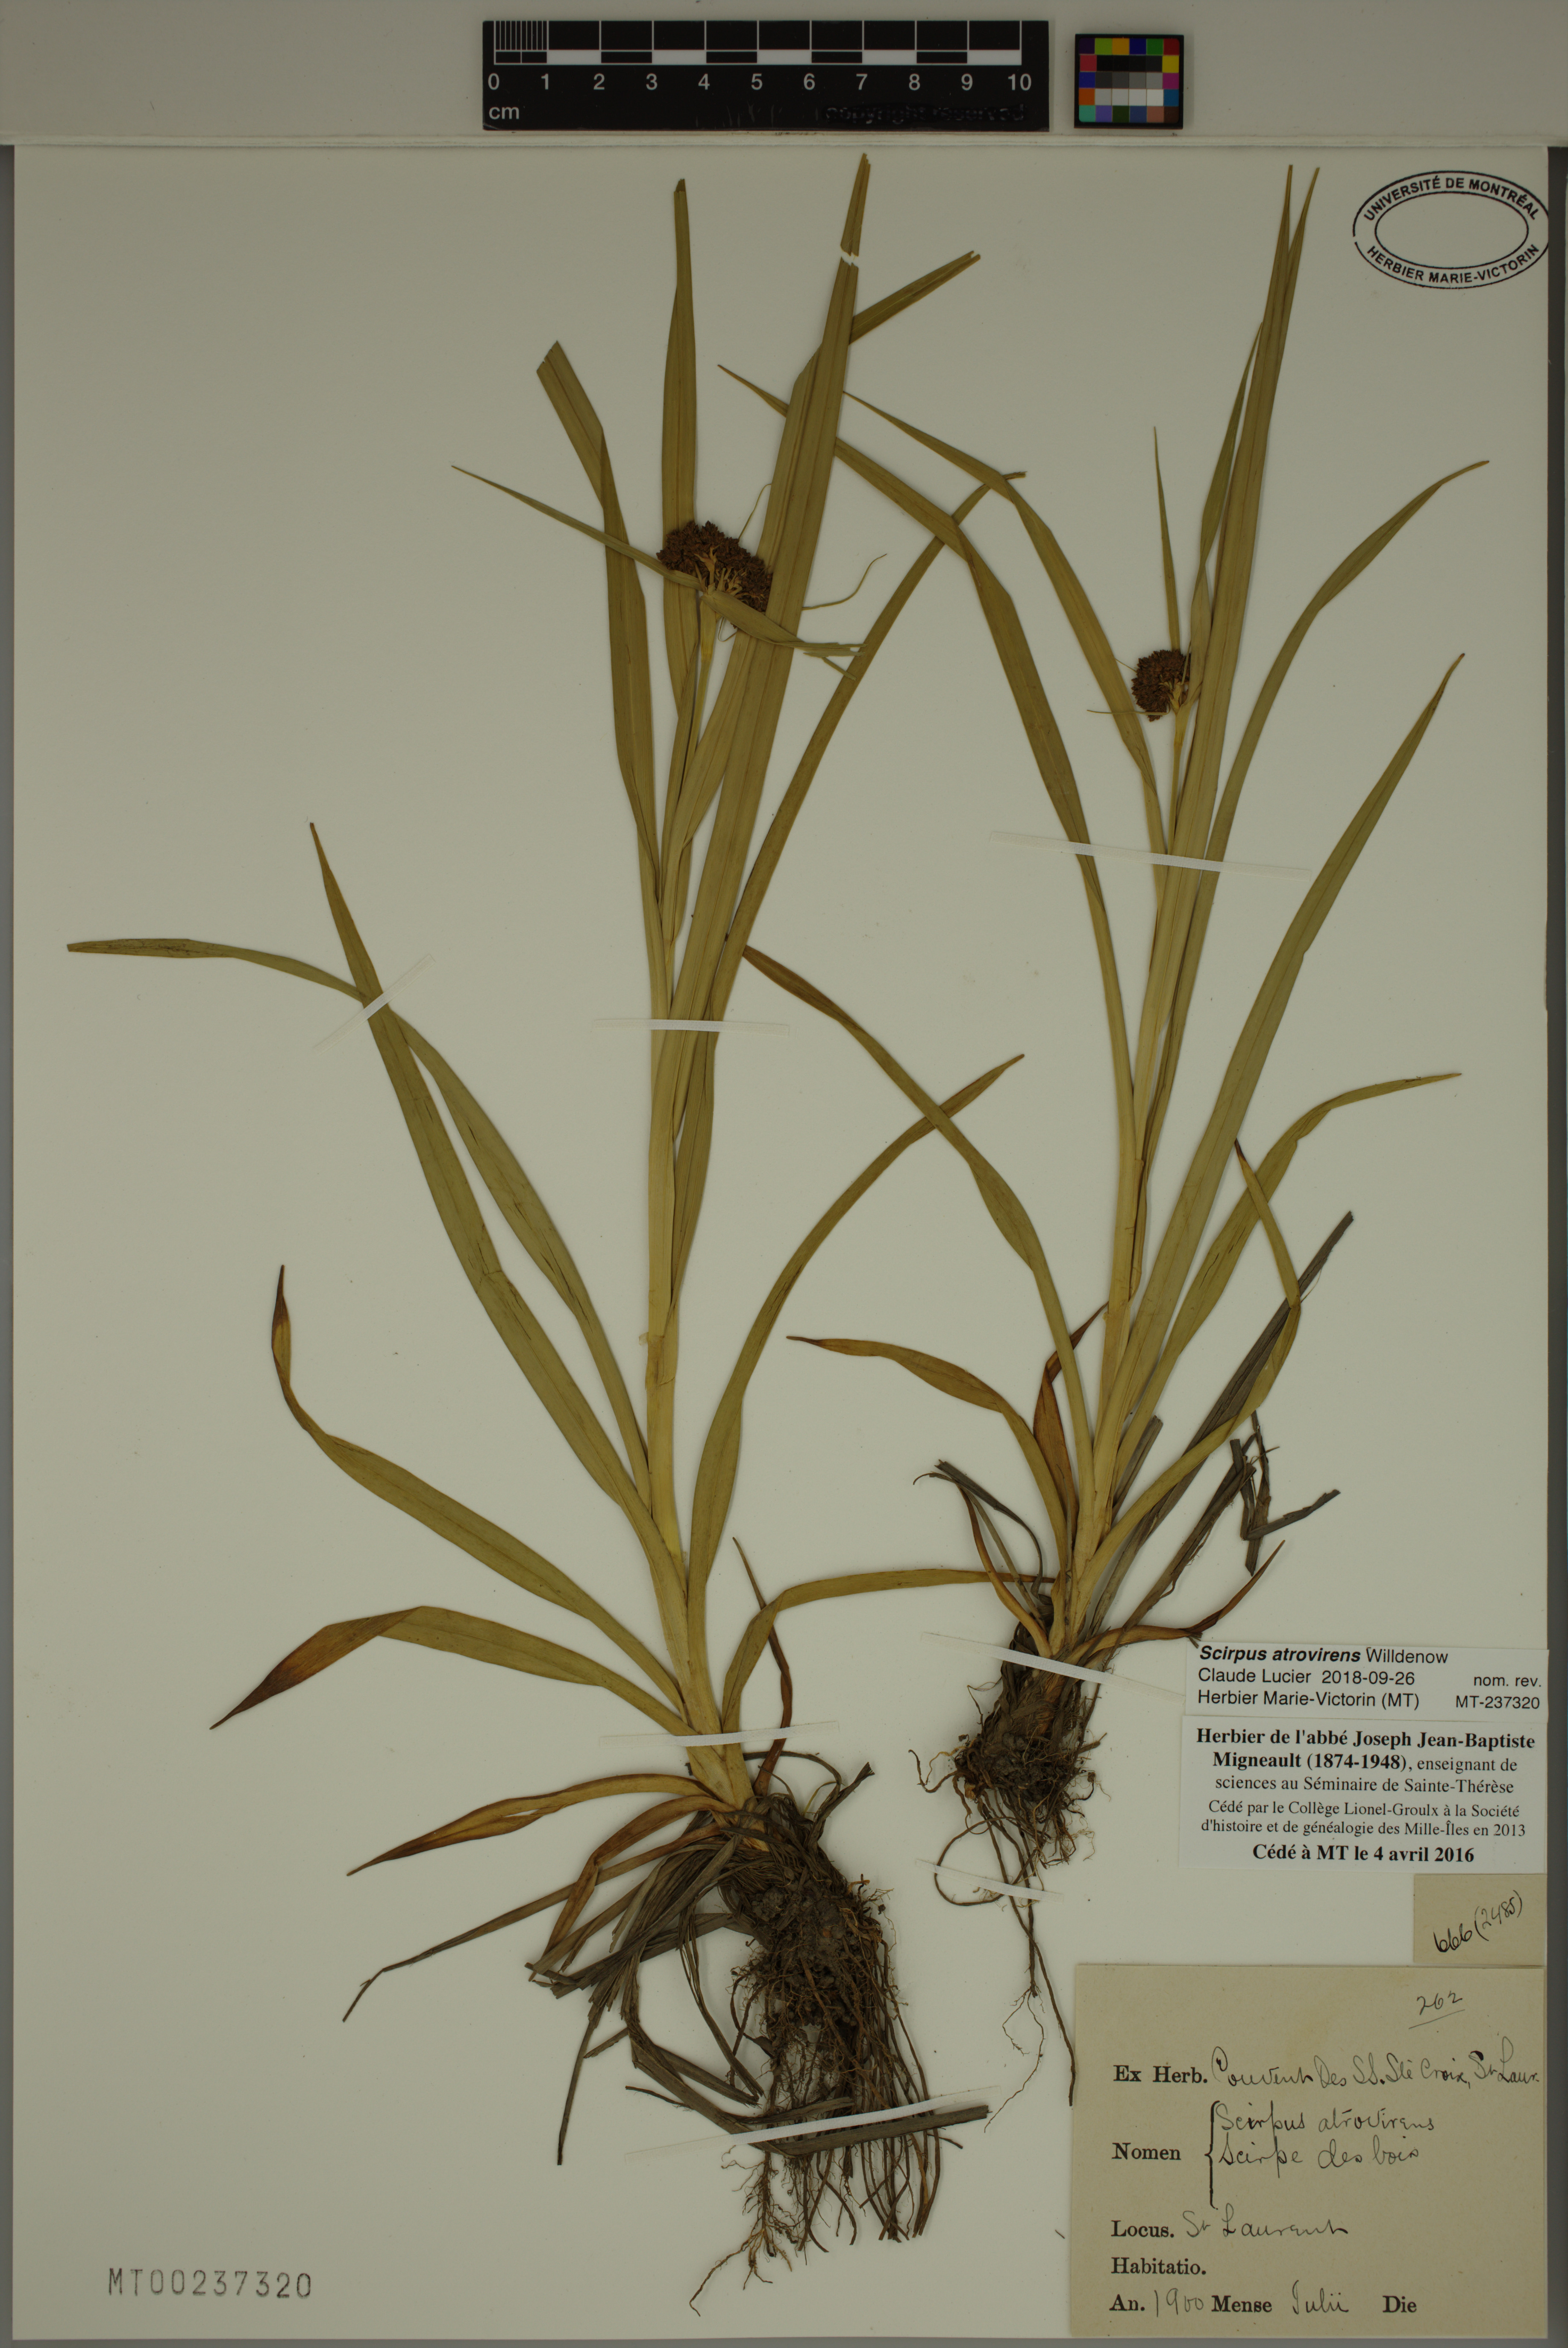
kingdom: Plantae
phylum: Tracheophyta
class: Liliopsida
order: Poales
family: Cyperaceae
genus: Scirpus
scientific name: Scirpus atrovirens
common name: Black bulrush
